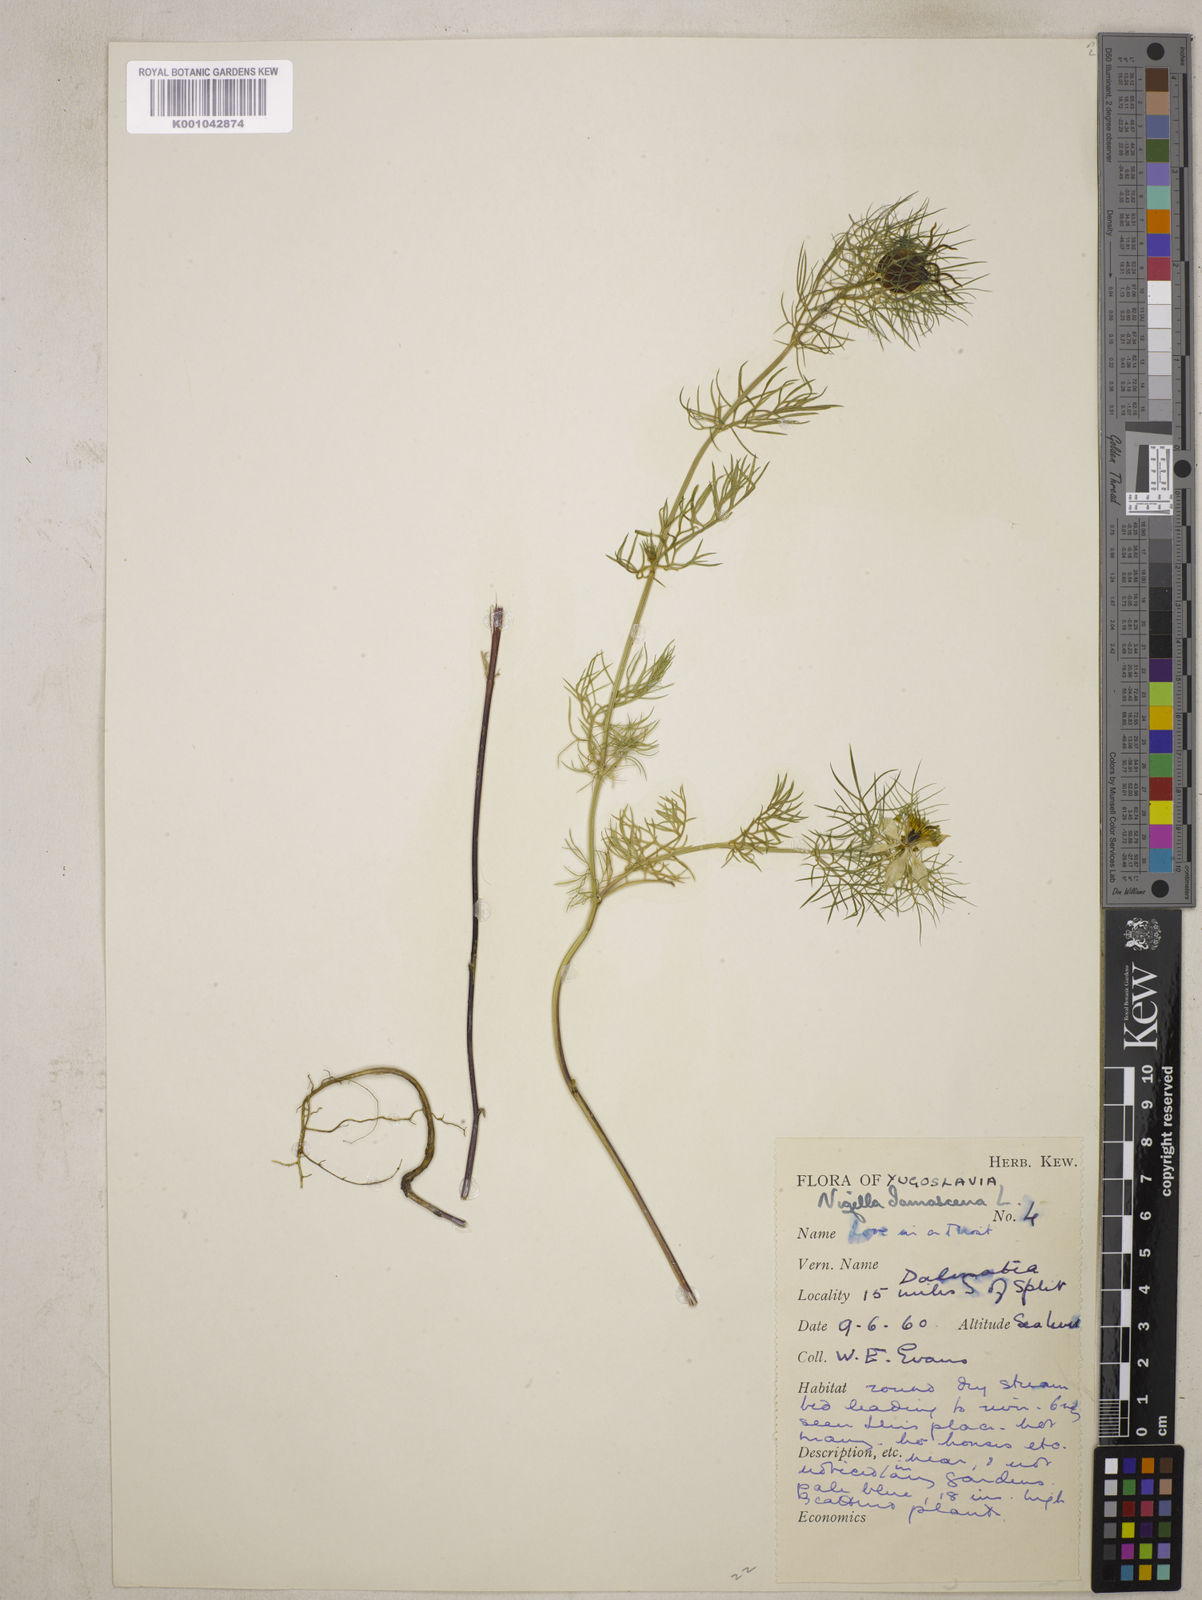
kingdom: Plantae
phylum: Tracheophyta
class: Magnoliopsida
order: Ranunculales
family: Ranunculaceae
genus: Nigella
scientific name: Nigella damascena
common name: Love-in-a-mist
